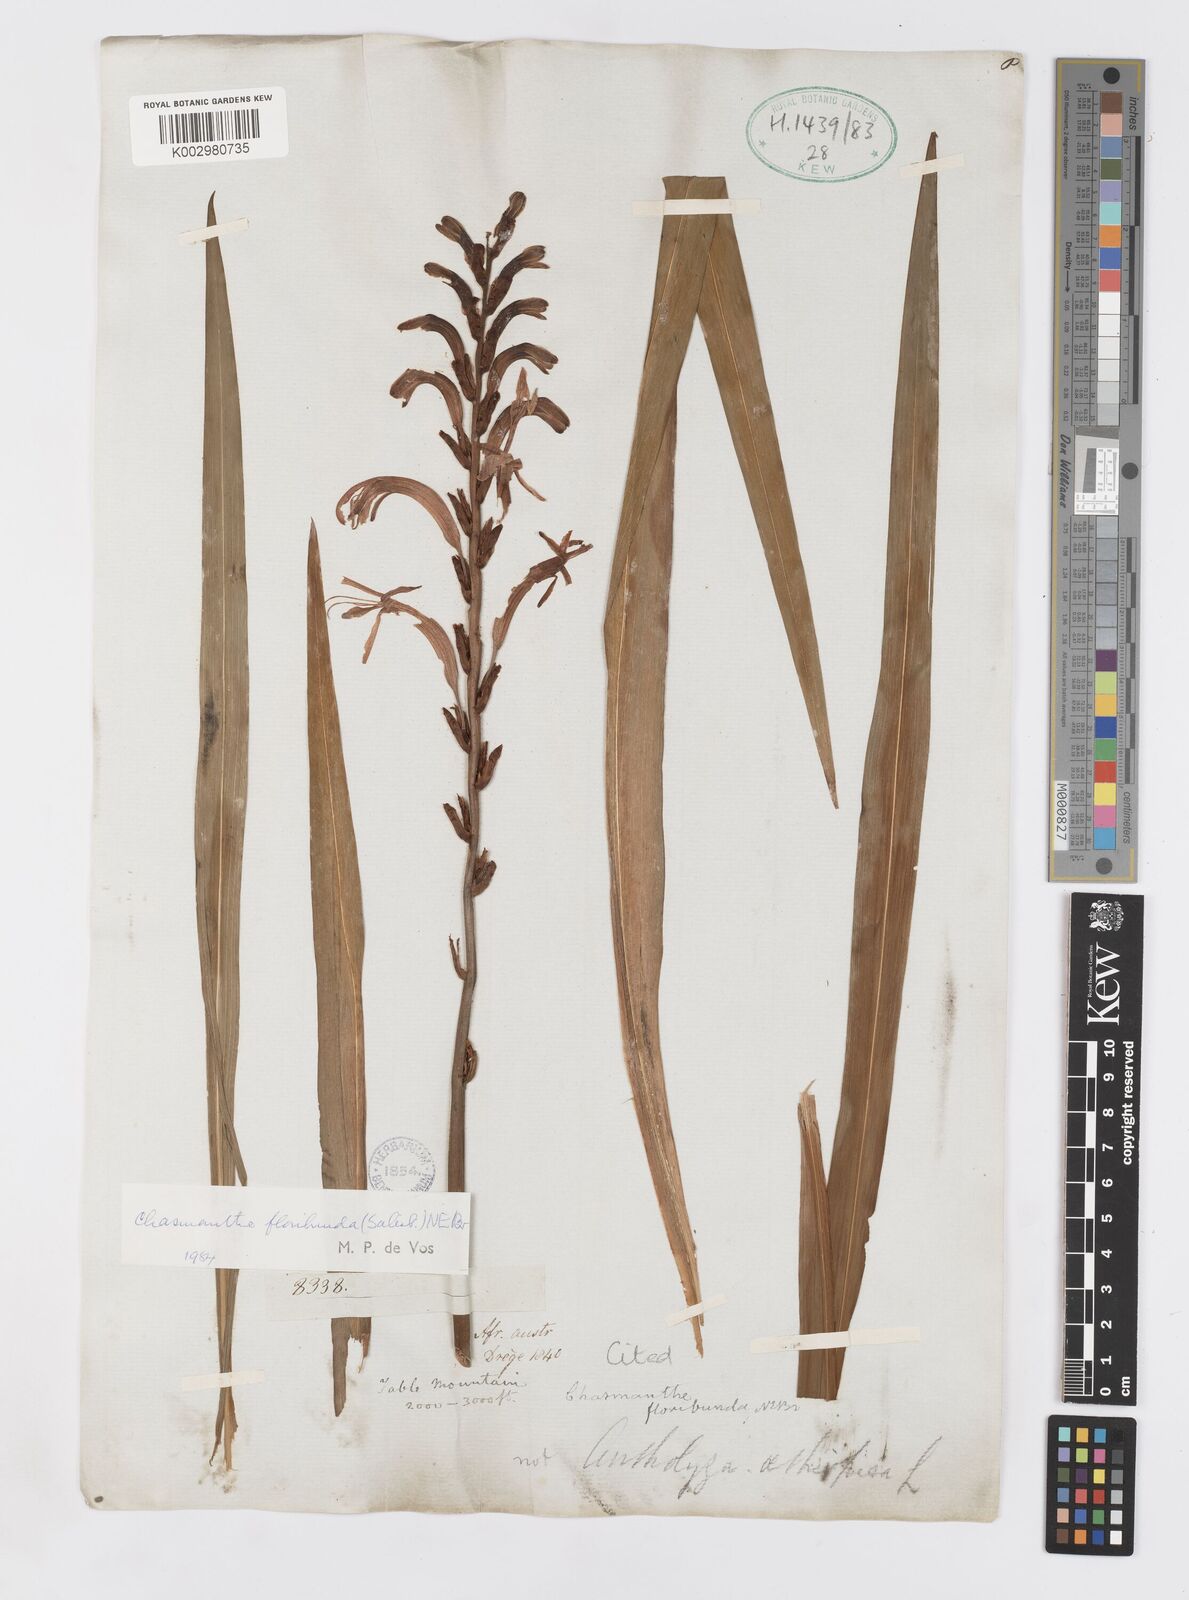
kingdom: Plantae
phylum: Tracheophyta
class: Liliopsida
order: Asparagales
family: Iridaceae
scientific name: Iridaceae
